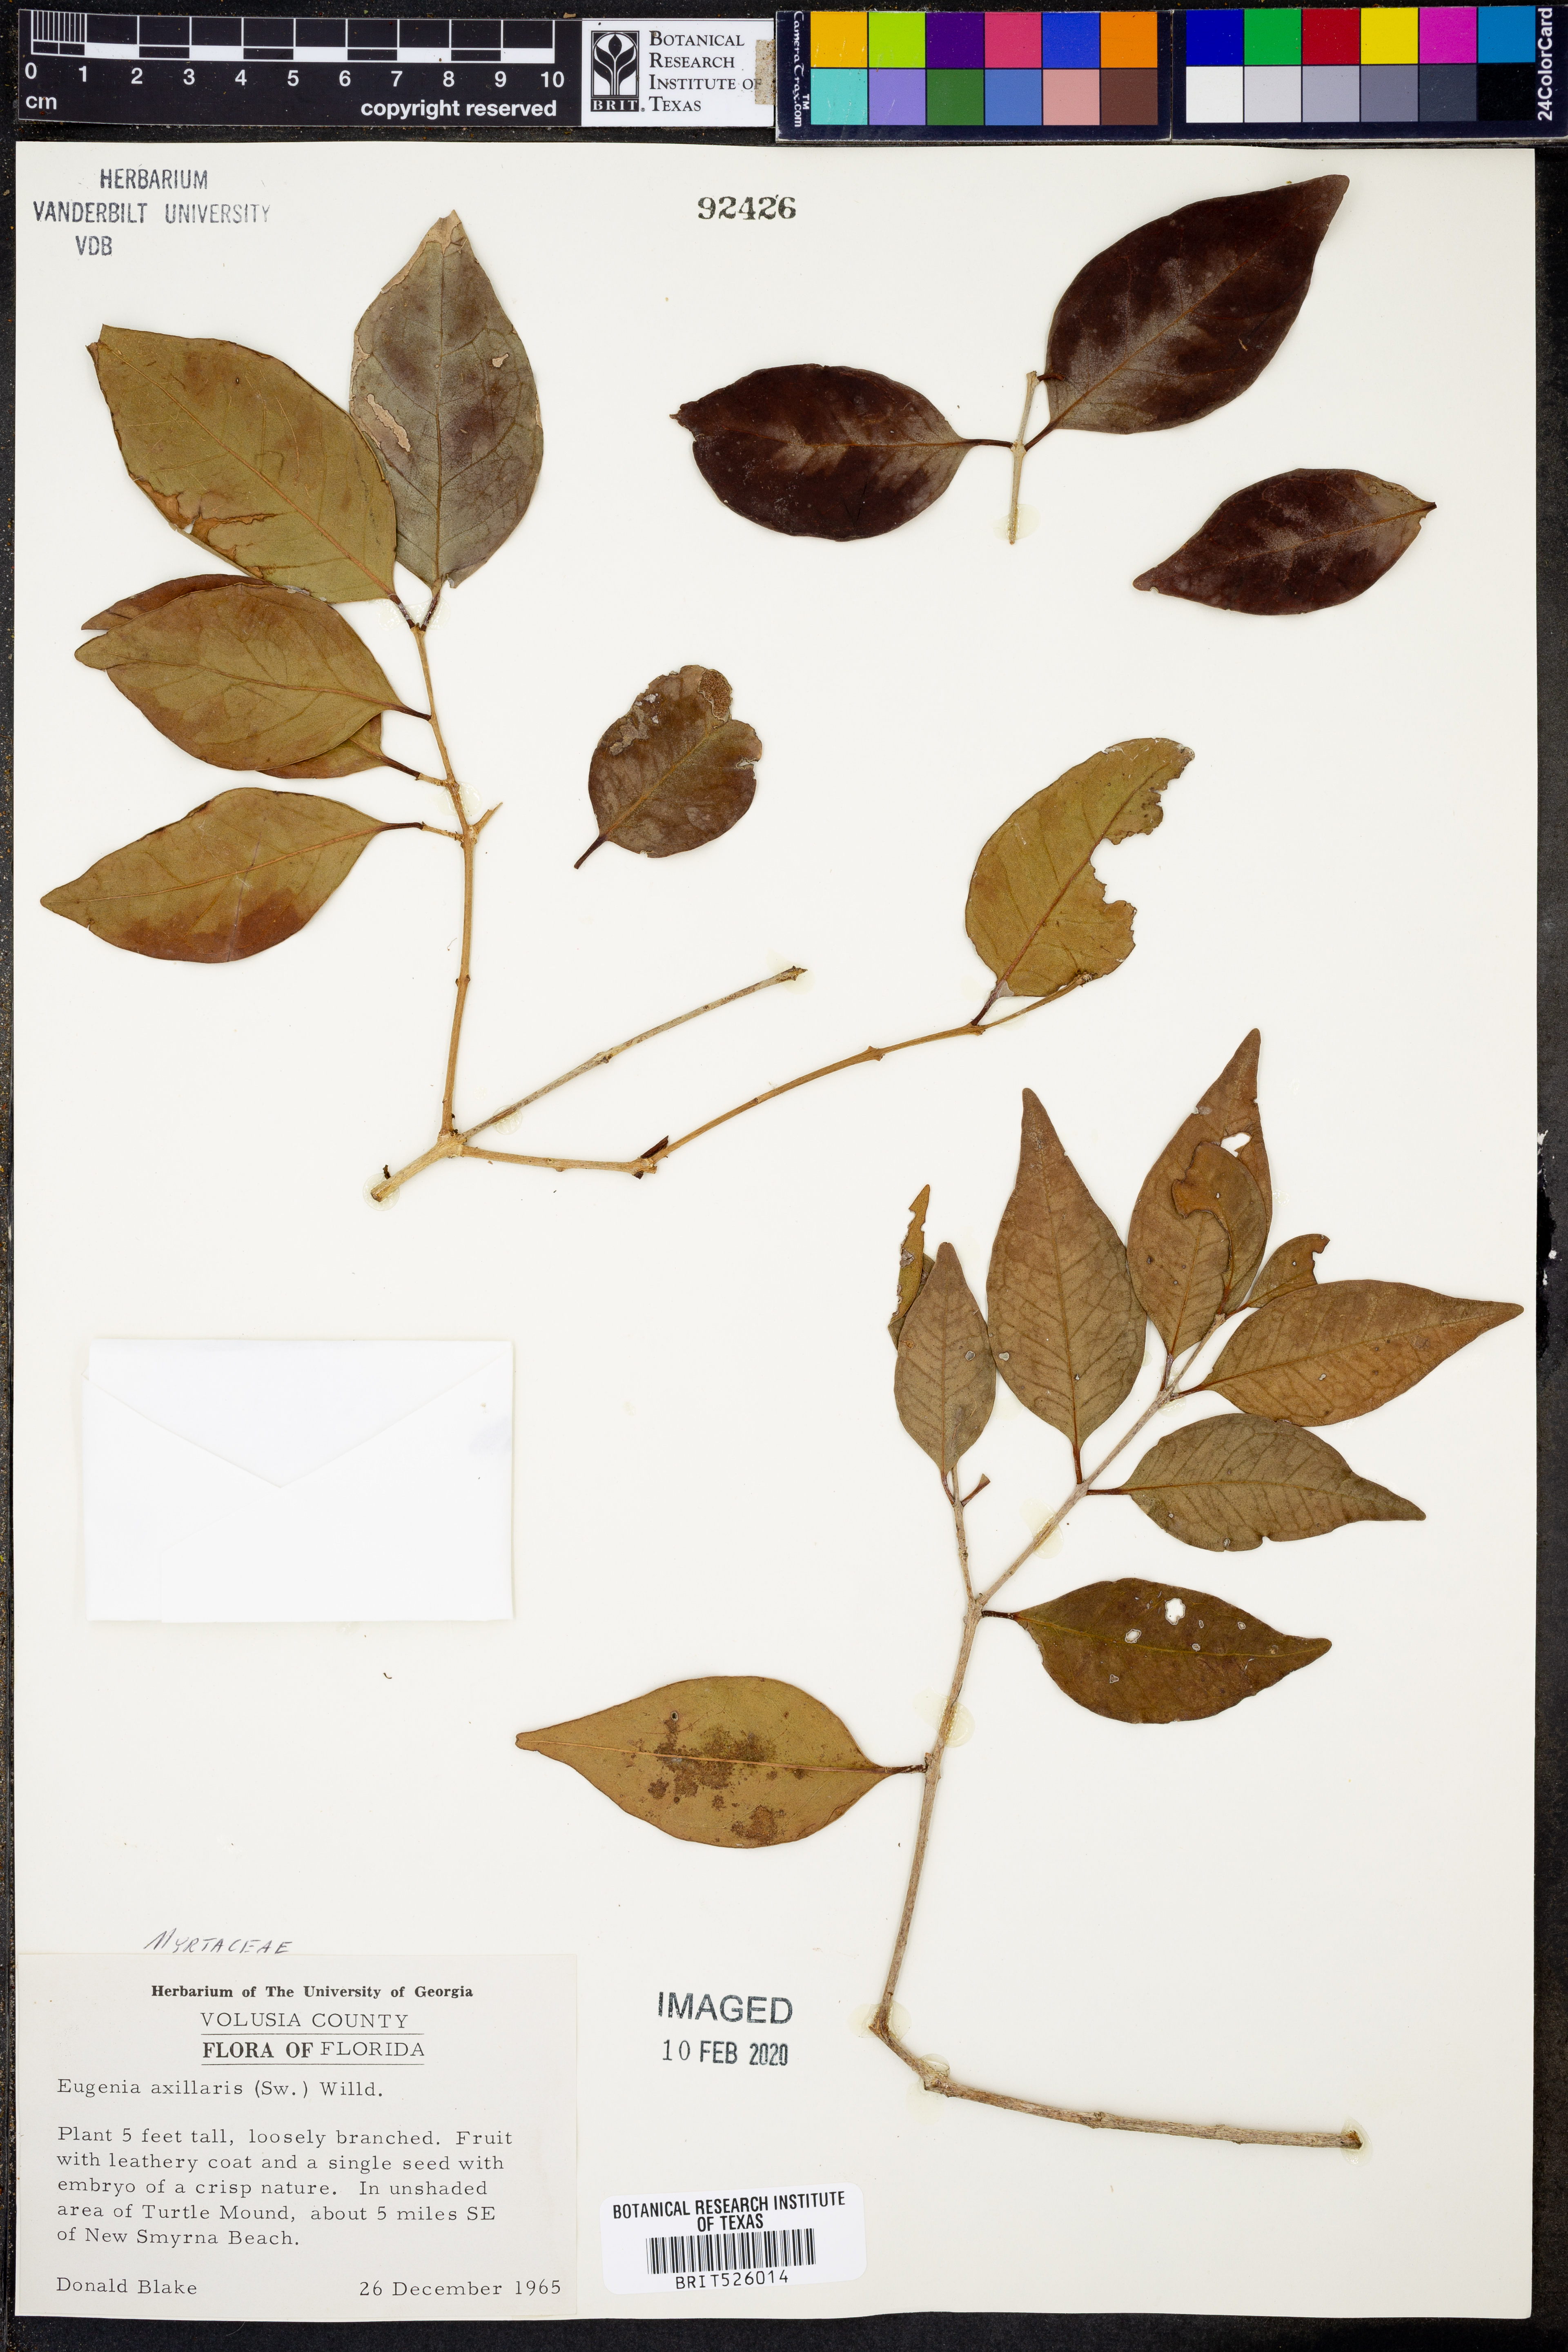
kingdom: Plantae
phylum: Tracheophyta
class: Magnoliopsida
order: Myrtales
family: Myrtaceae
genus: Eugenia
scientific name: Eugenia axillaris
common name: Choaky berry
